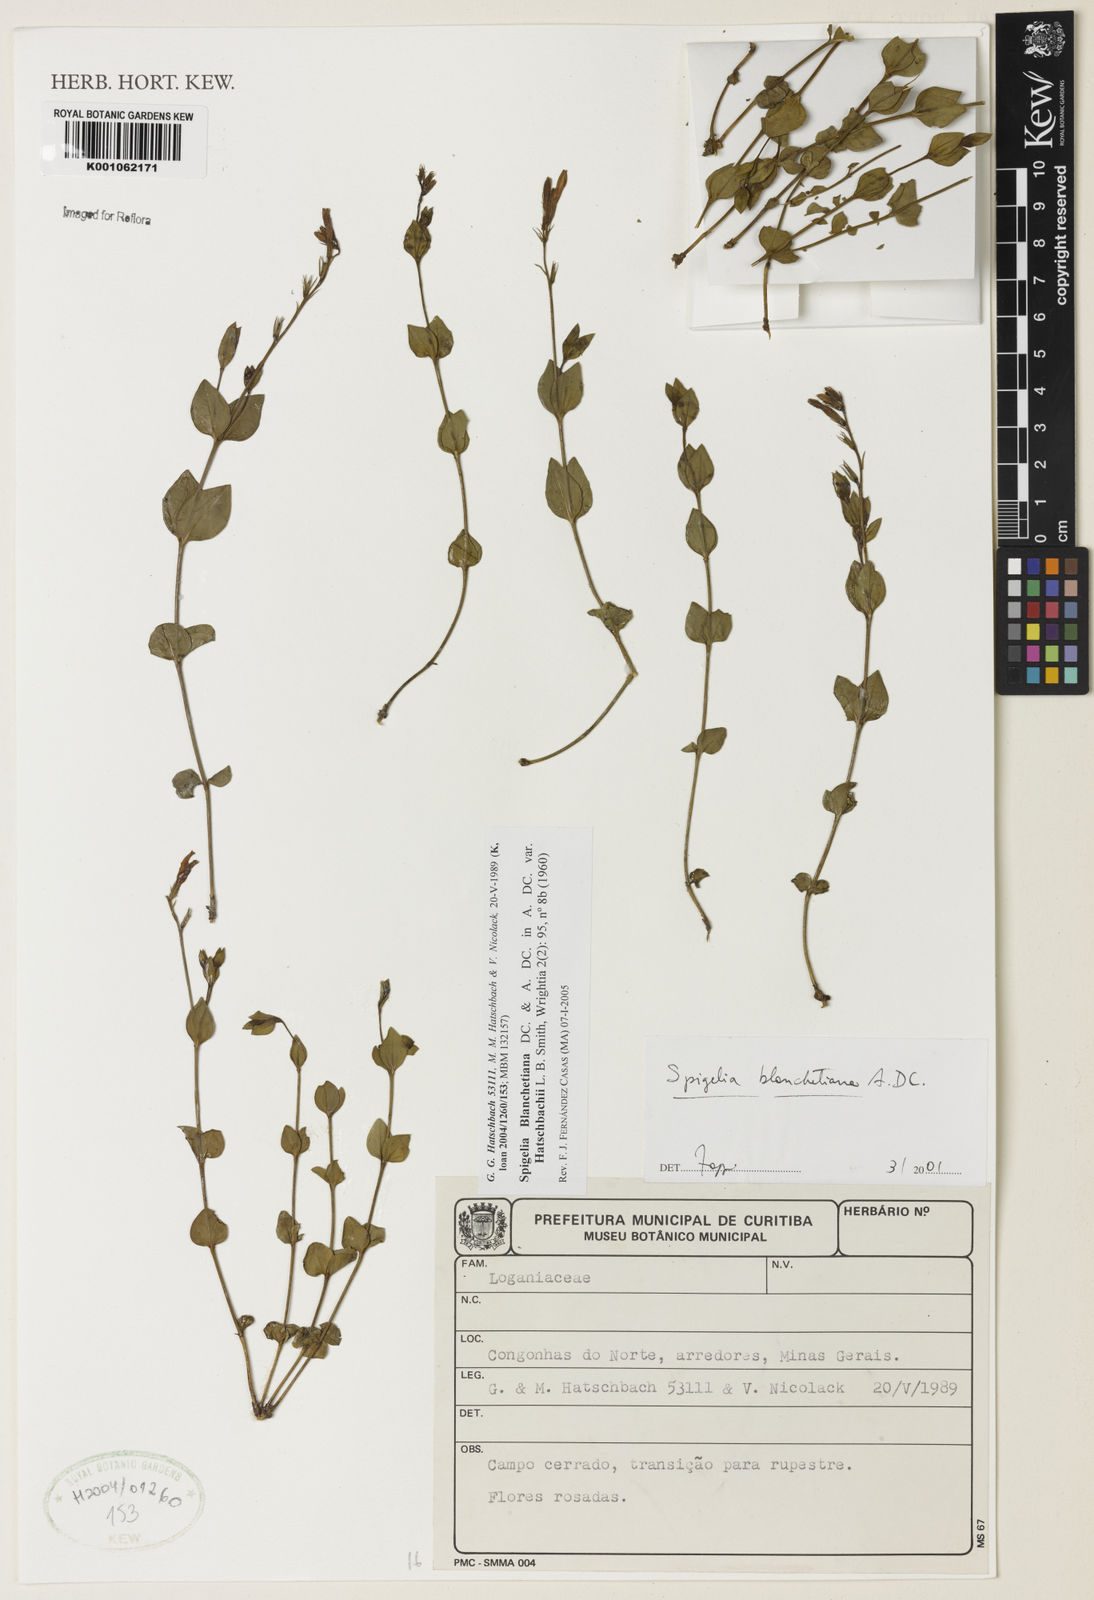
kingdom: Plantae
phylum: Tracheophyta
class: Magnoliopsida
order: Gentianales
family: Loganiaceae
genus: Spigelia
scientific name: Spigelia blanchetiana
